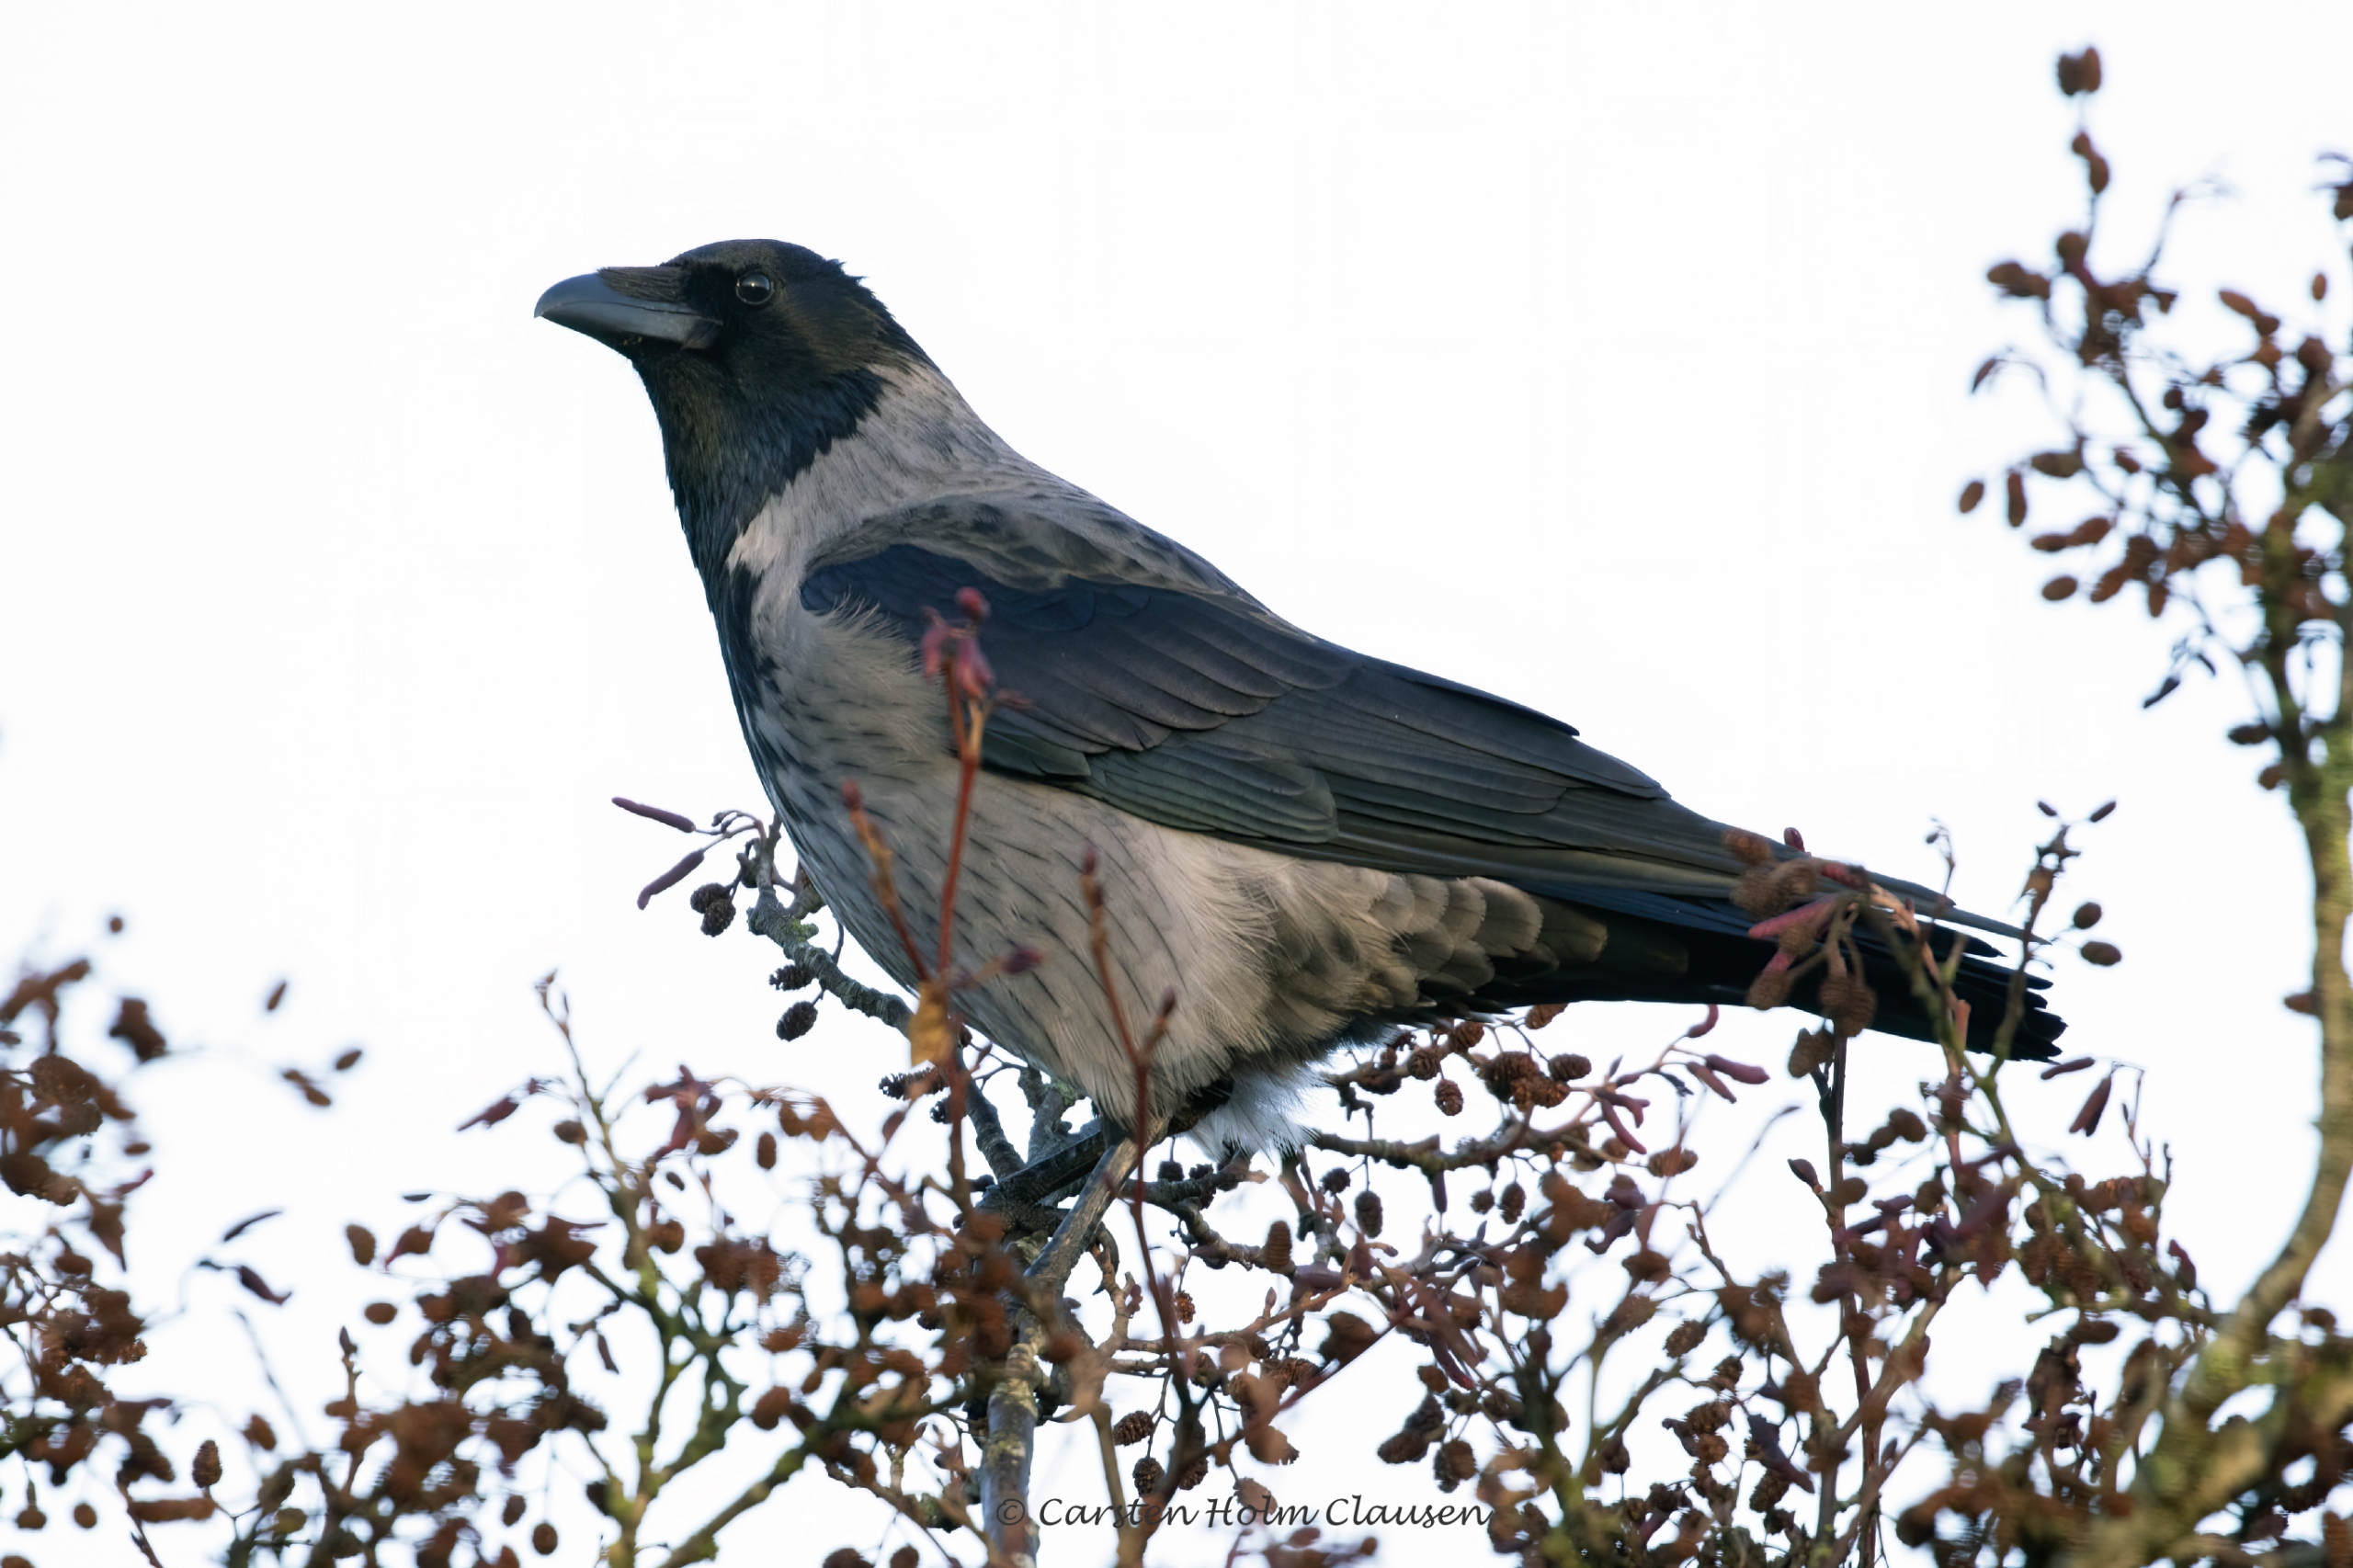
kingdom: Animalia
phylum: Chordata
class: Aves
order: Passeriformes
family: Corvidae
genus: Corvus
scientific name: Corvus cornix
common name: Gråkrage
